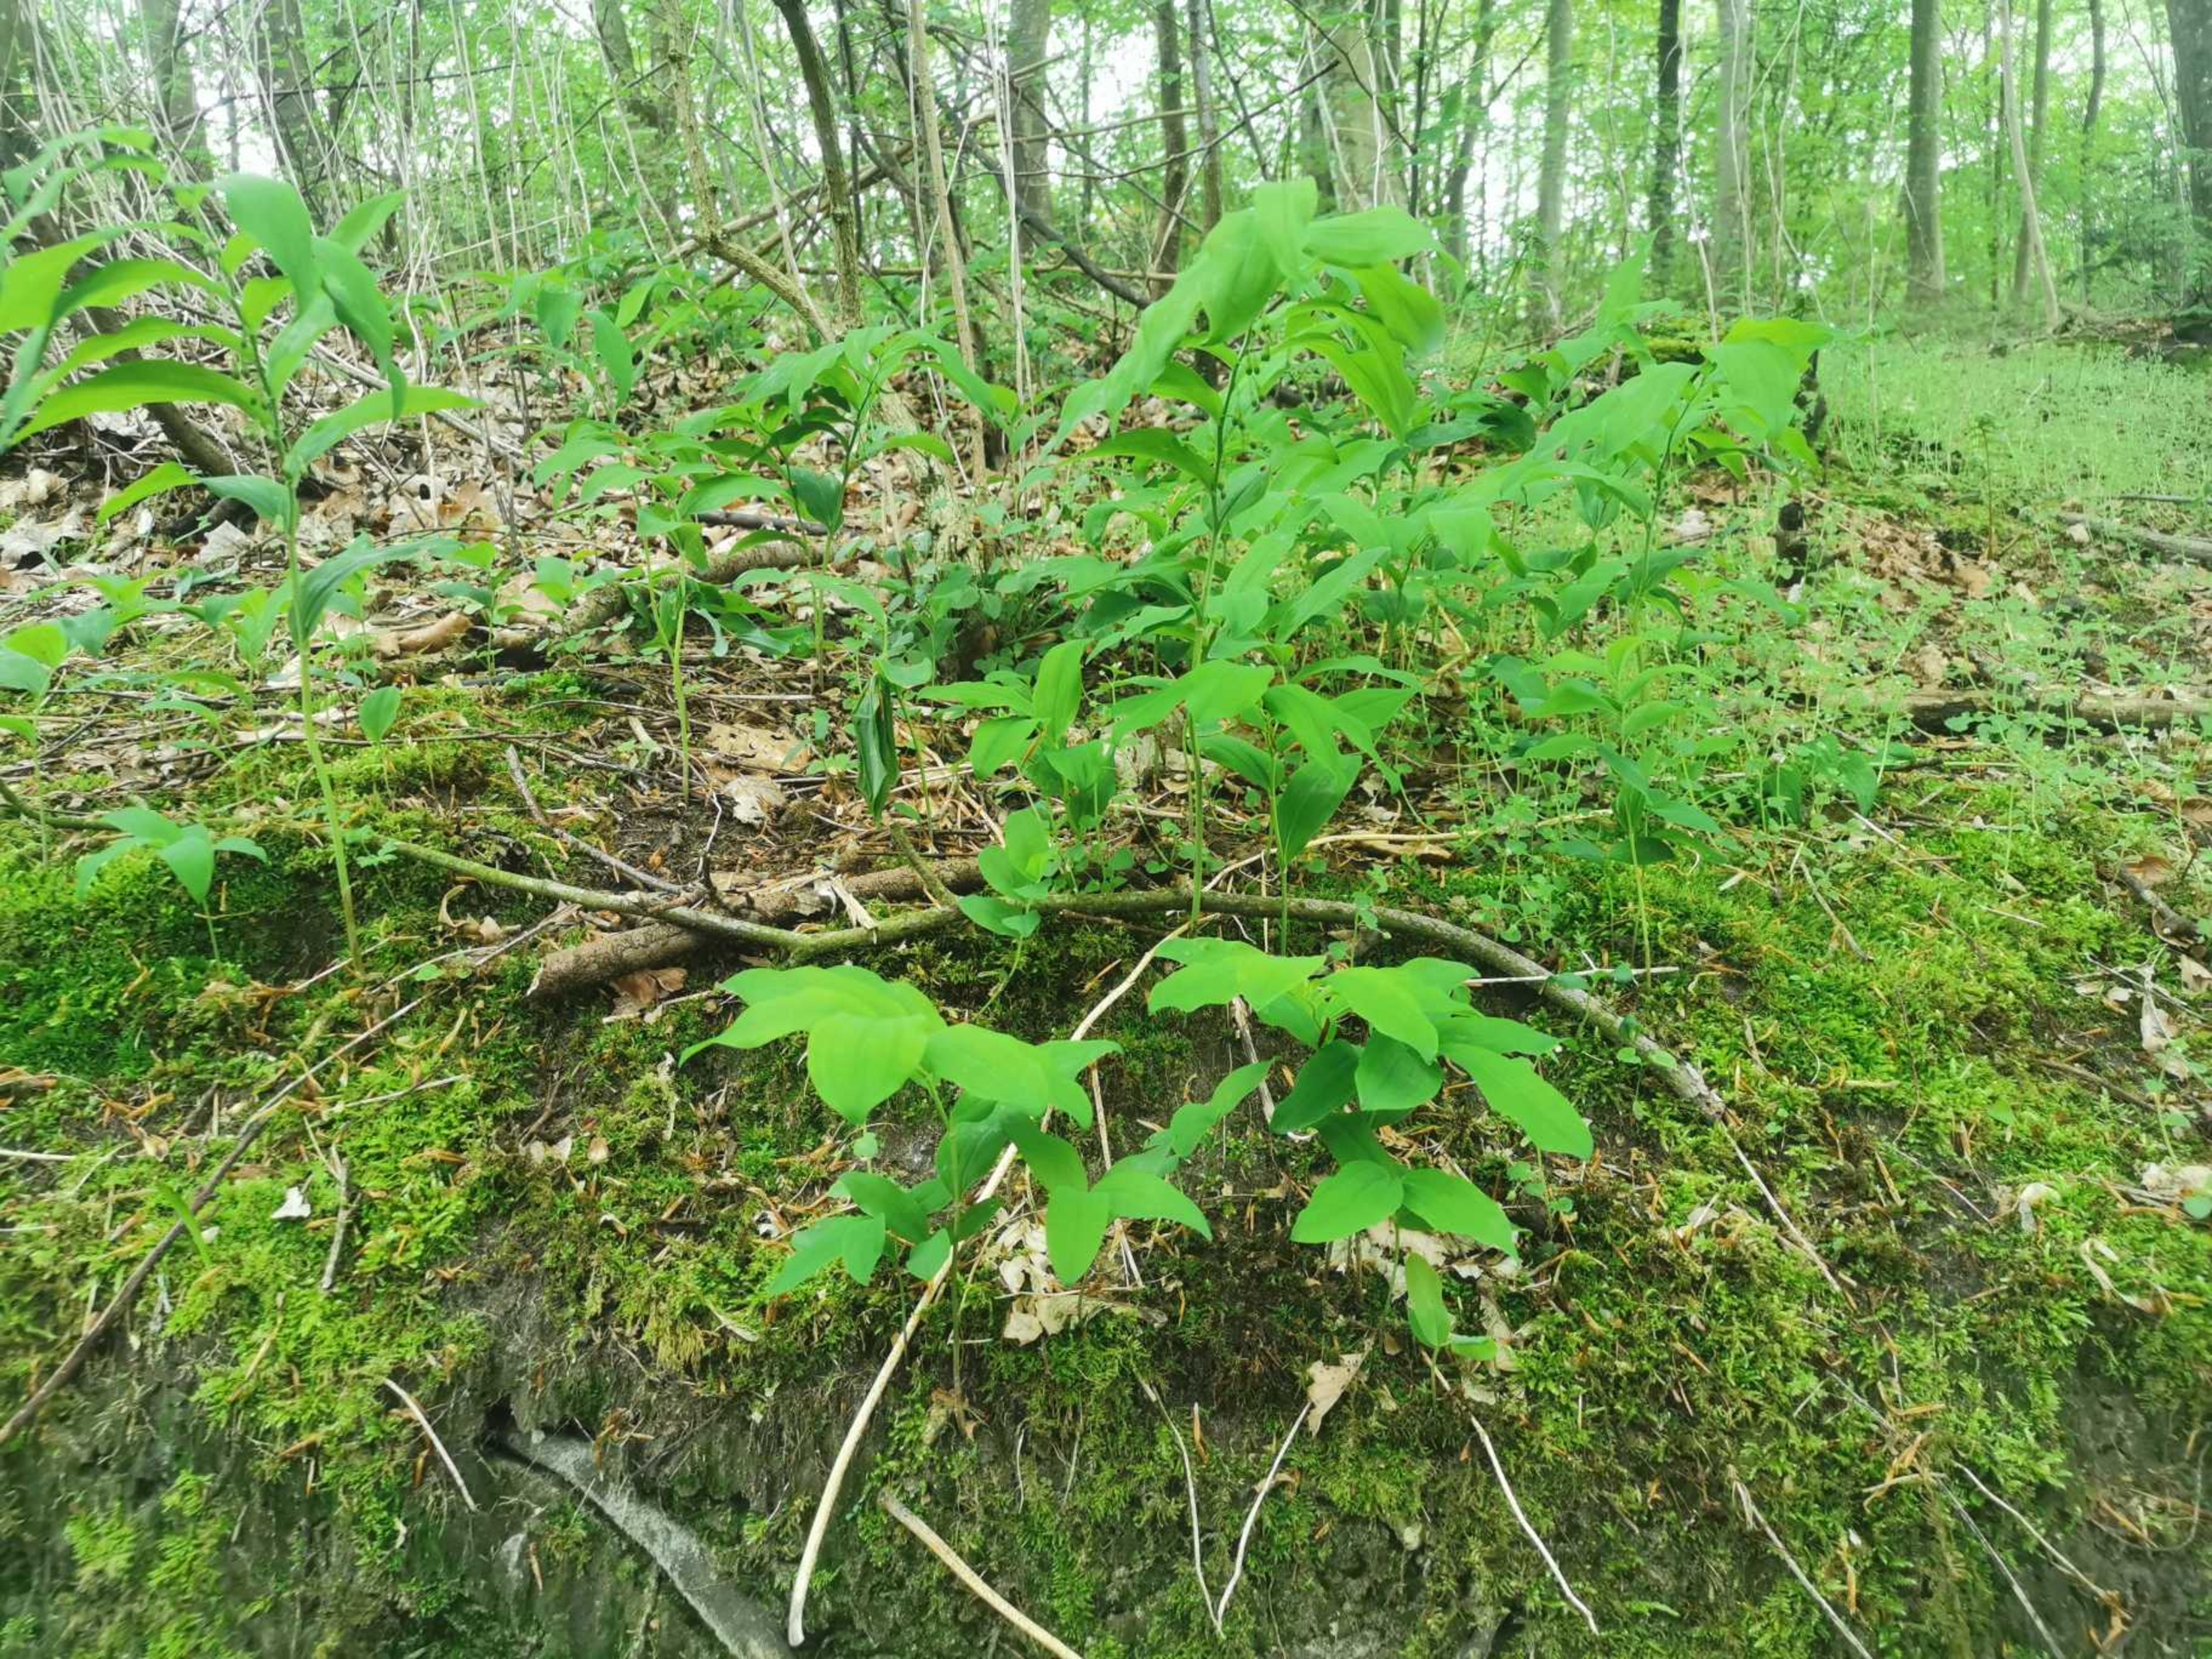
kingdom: Plantae
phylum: Tracheophyta
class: Liliopsida
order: Asparagales
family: Asparagaceae
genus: Polygonatum
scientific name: Polygonatum multiflorum
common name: Stor konval
